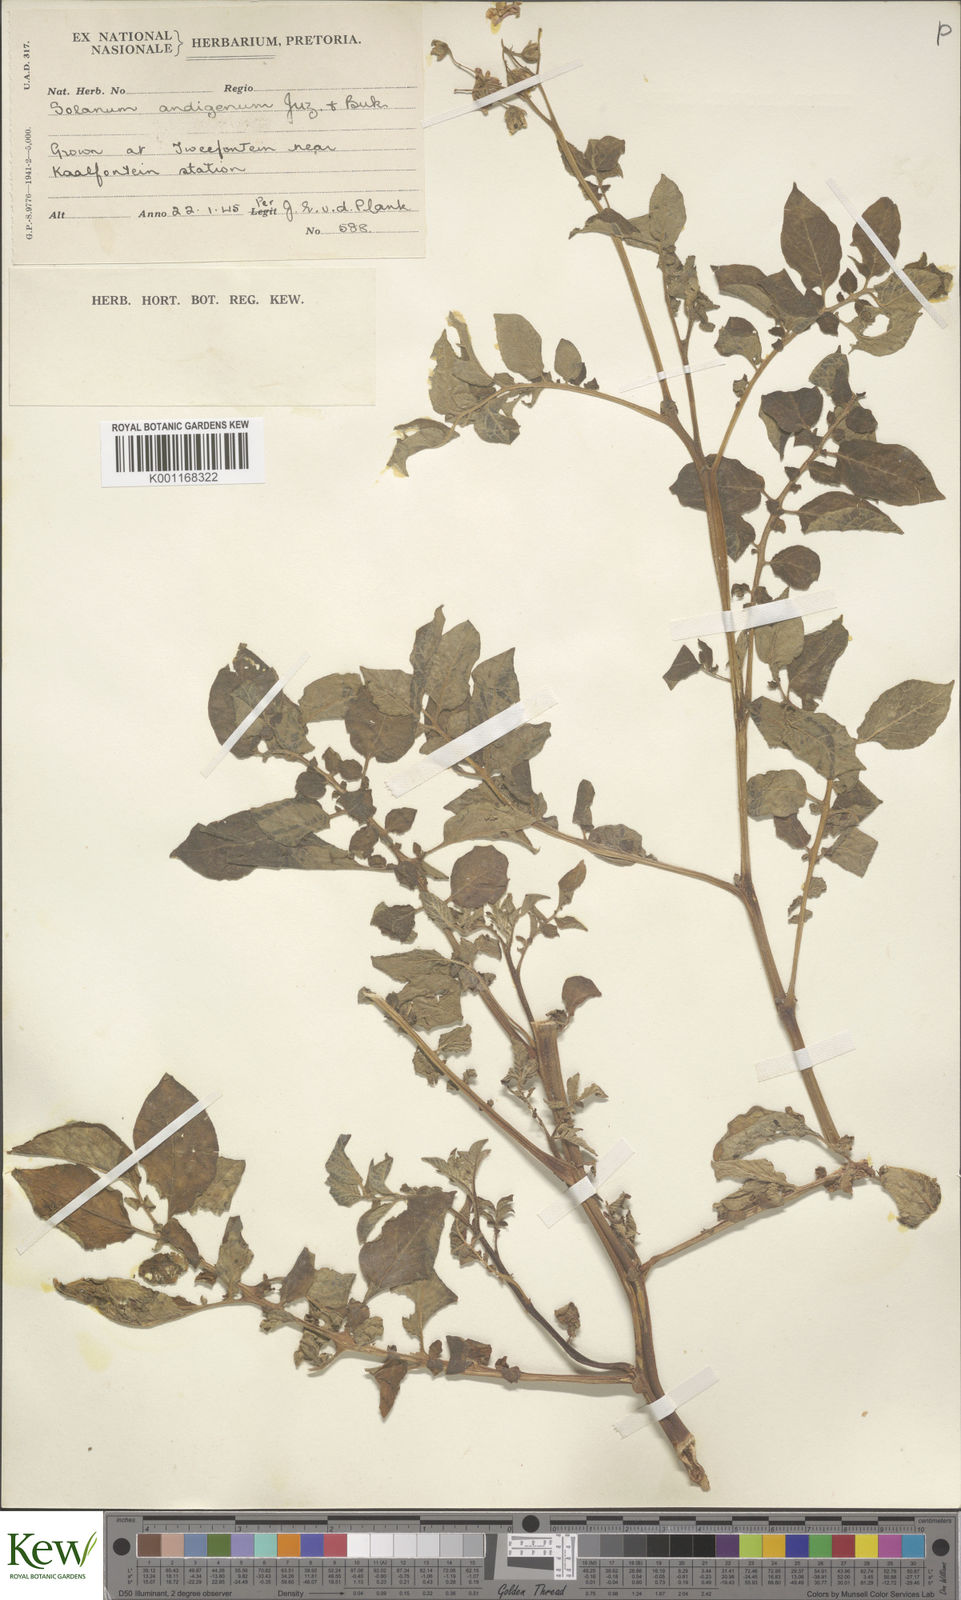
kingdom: Plantae
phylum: Tracheophyta
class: Magnoliopsida
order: Solanales
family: Solanaceae
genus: Solanum
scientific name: Solanum tuberosum
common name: Potato
